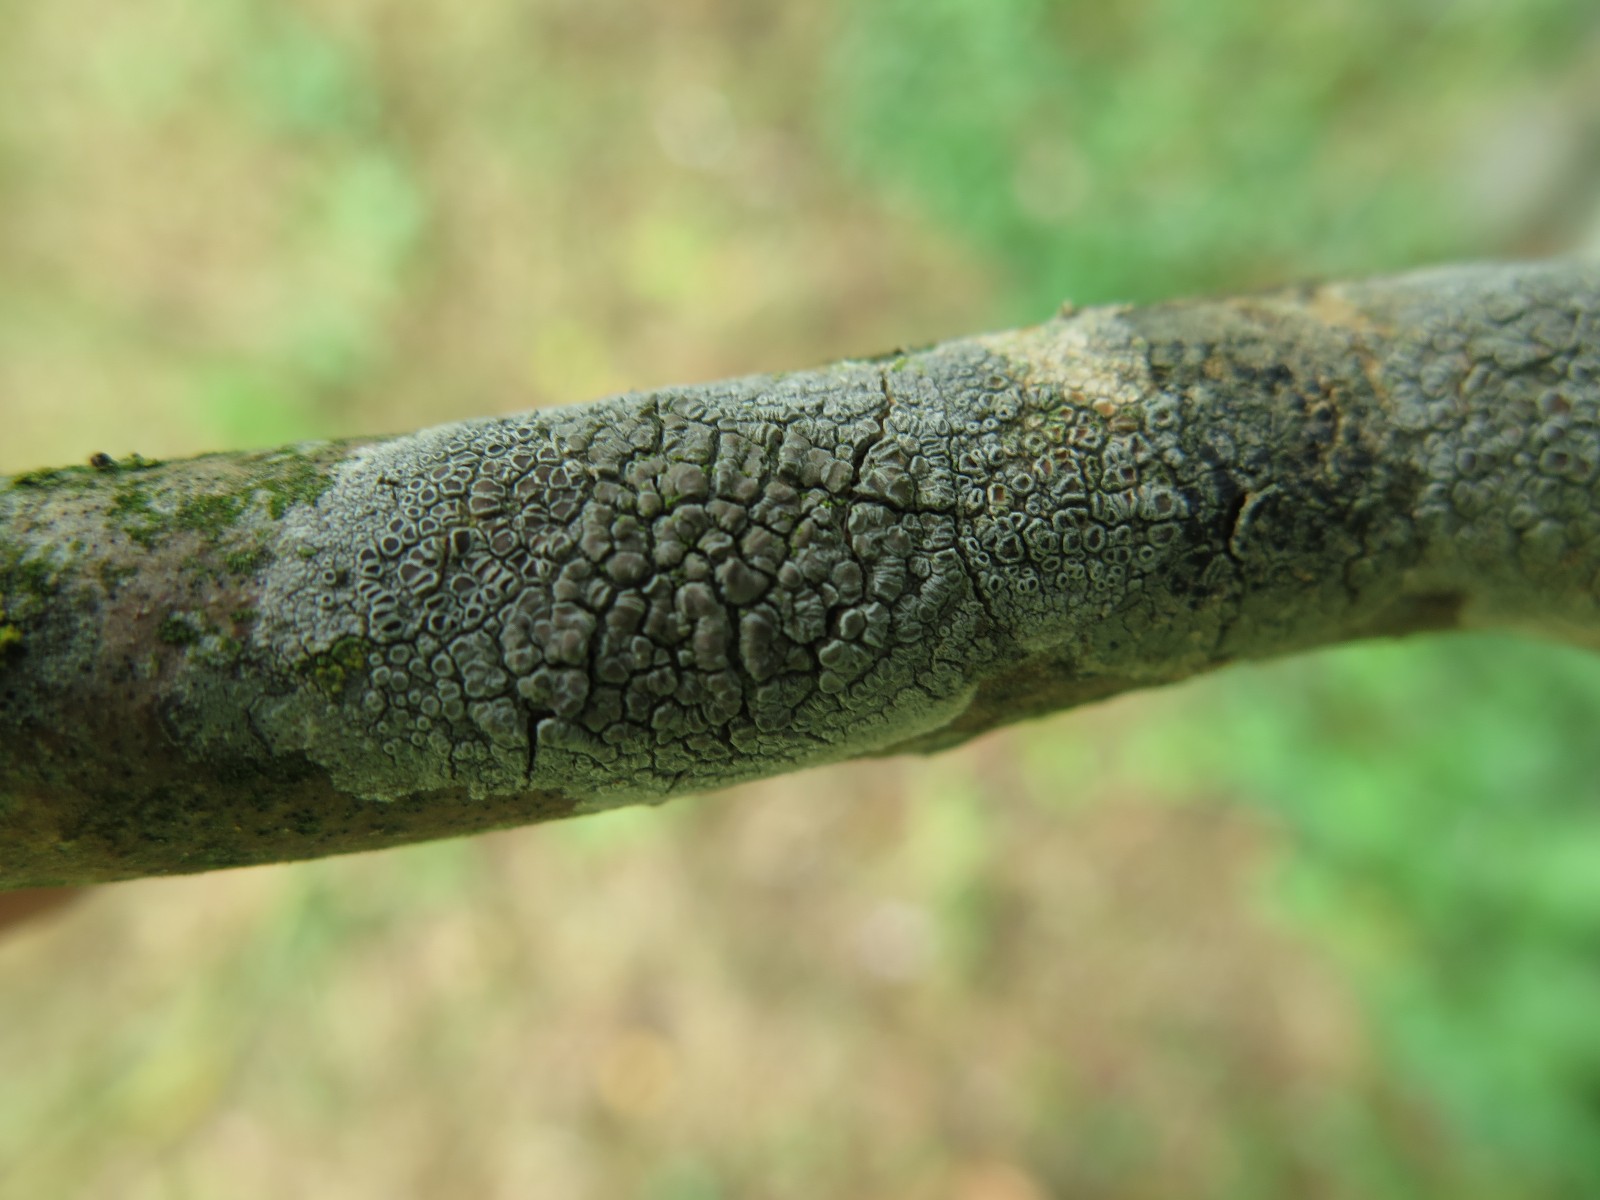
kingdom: Fungi
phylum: Ascomycota
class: Lecanoromycetes
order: Lecanorales
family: Lecanoraceae
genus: Lecanora
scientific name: Lecanora chlarotera
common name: brun kantskivelav
